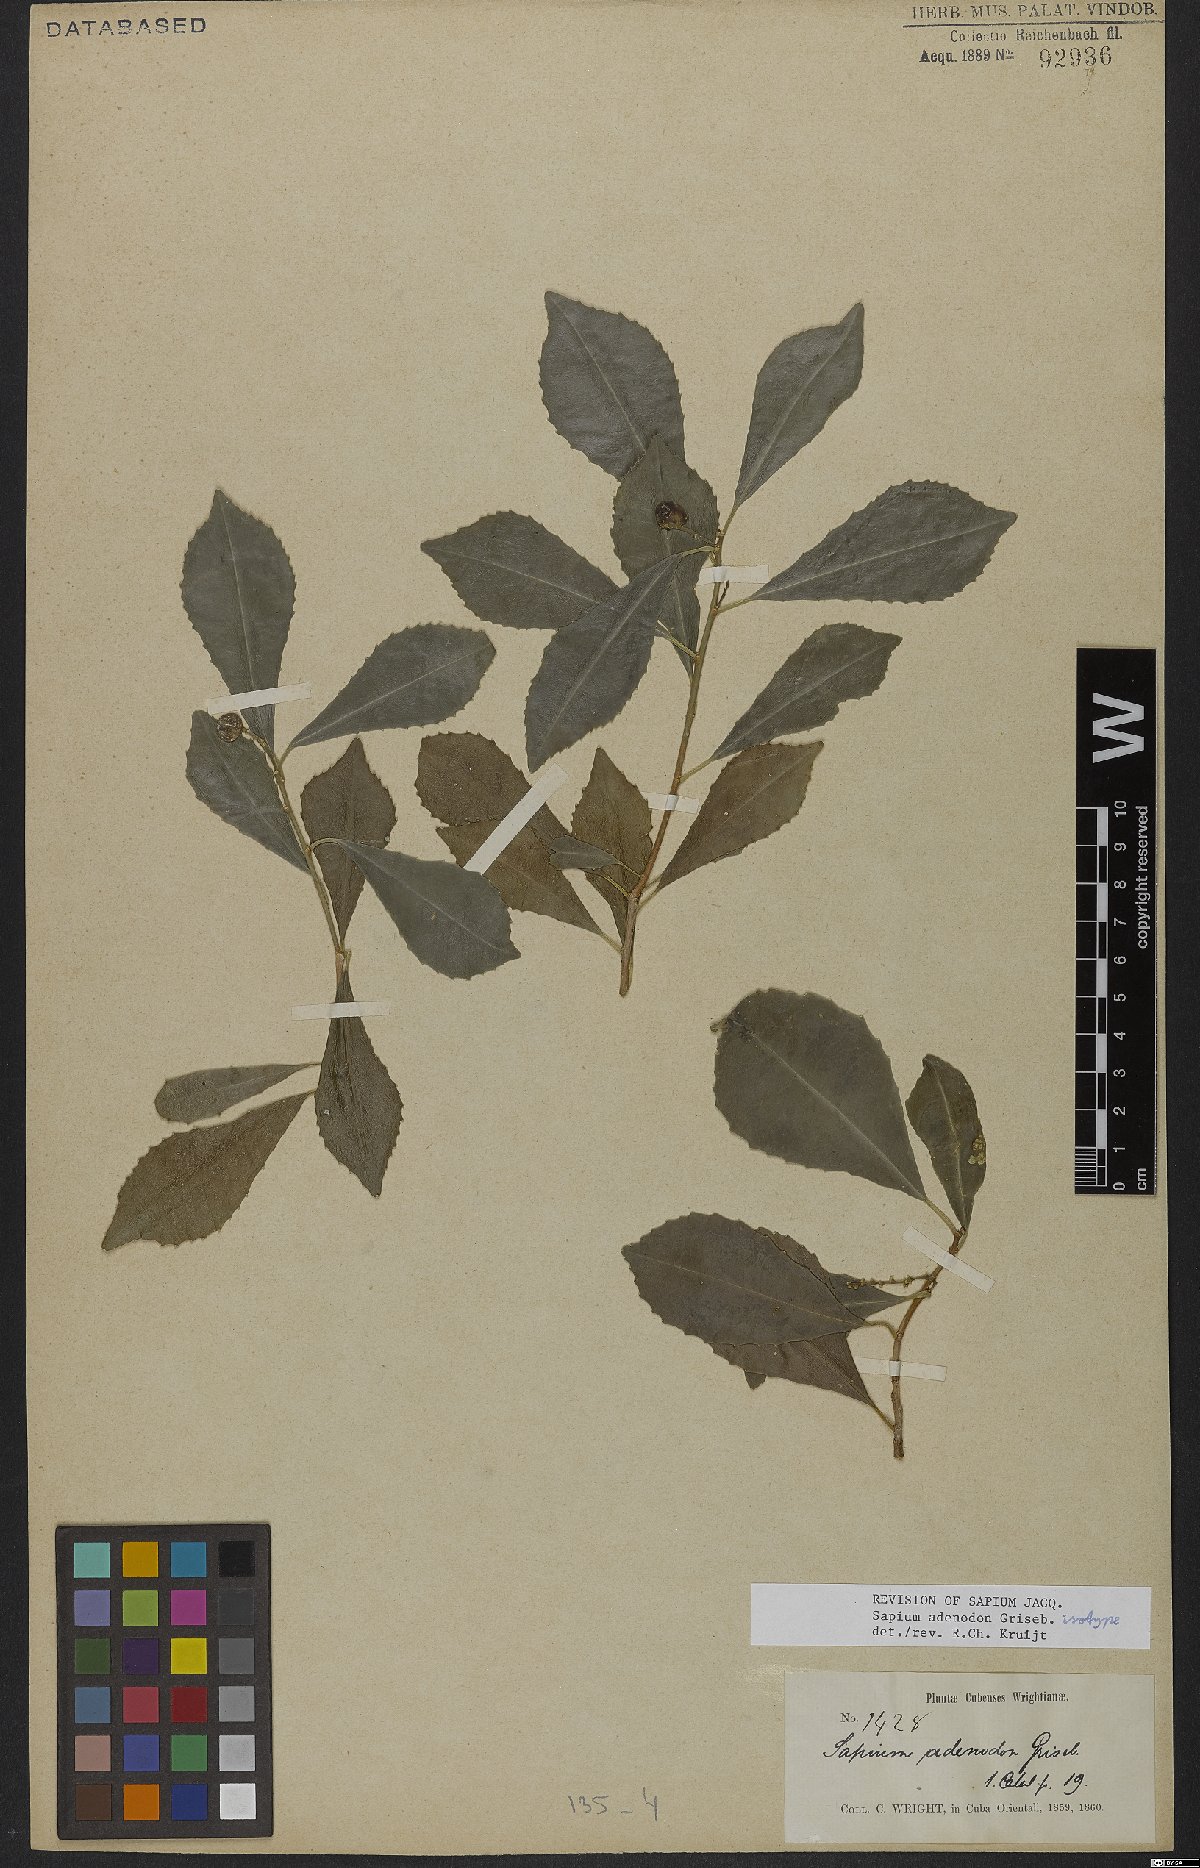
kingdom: Plantae
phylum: Tracheophyta
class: Magnoliopsida
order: Malpighiales
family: Euphorbiaceae
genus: Sapium
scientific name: Sapium adenodon
